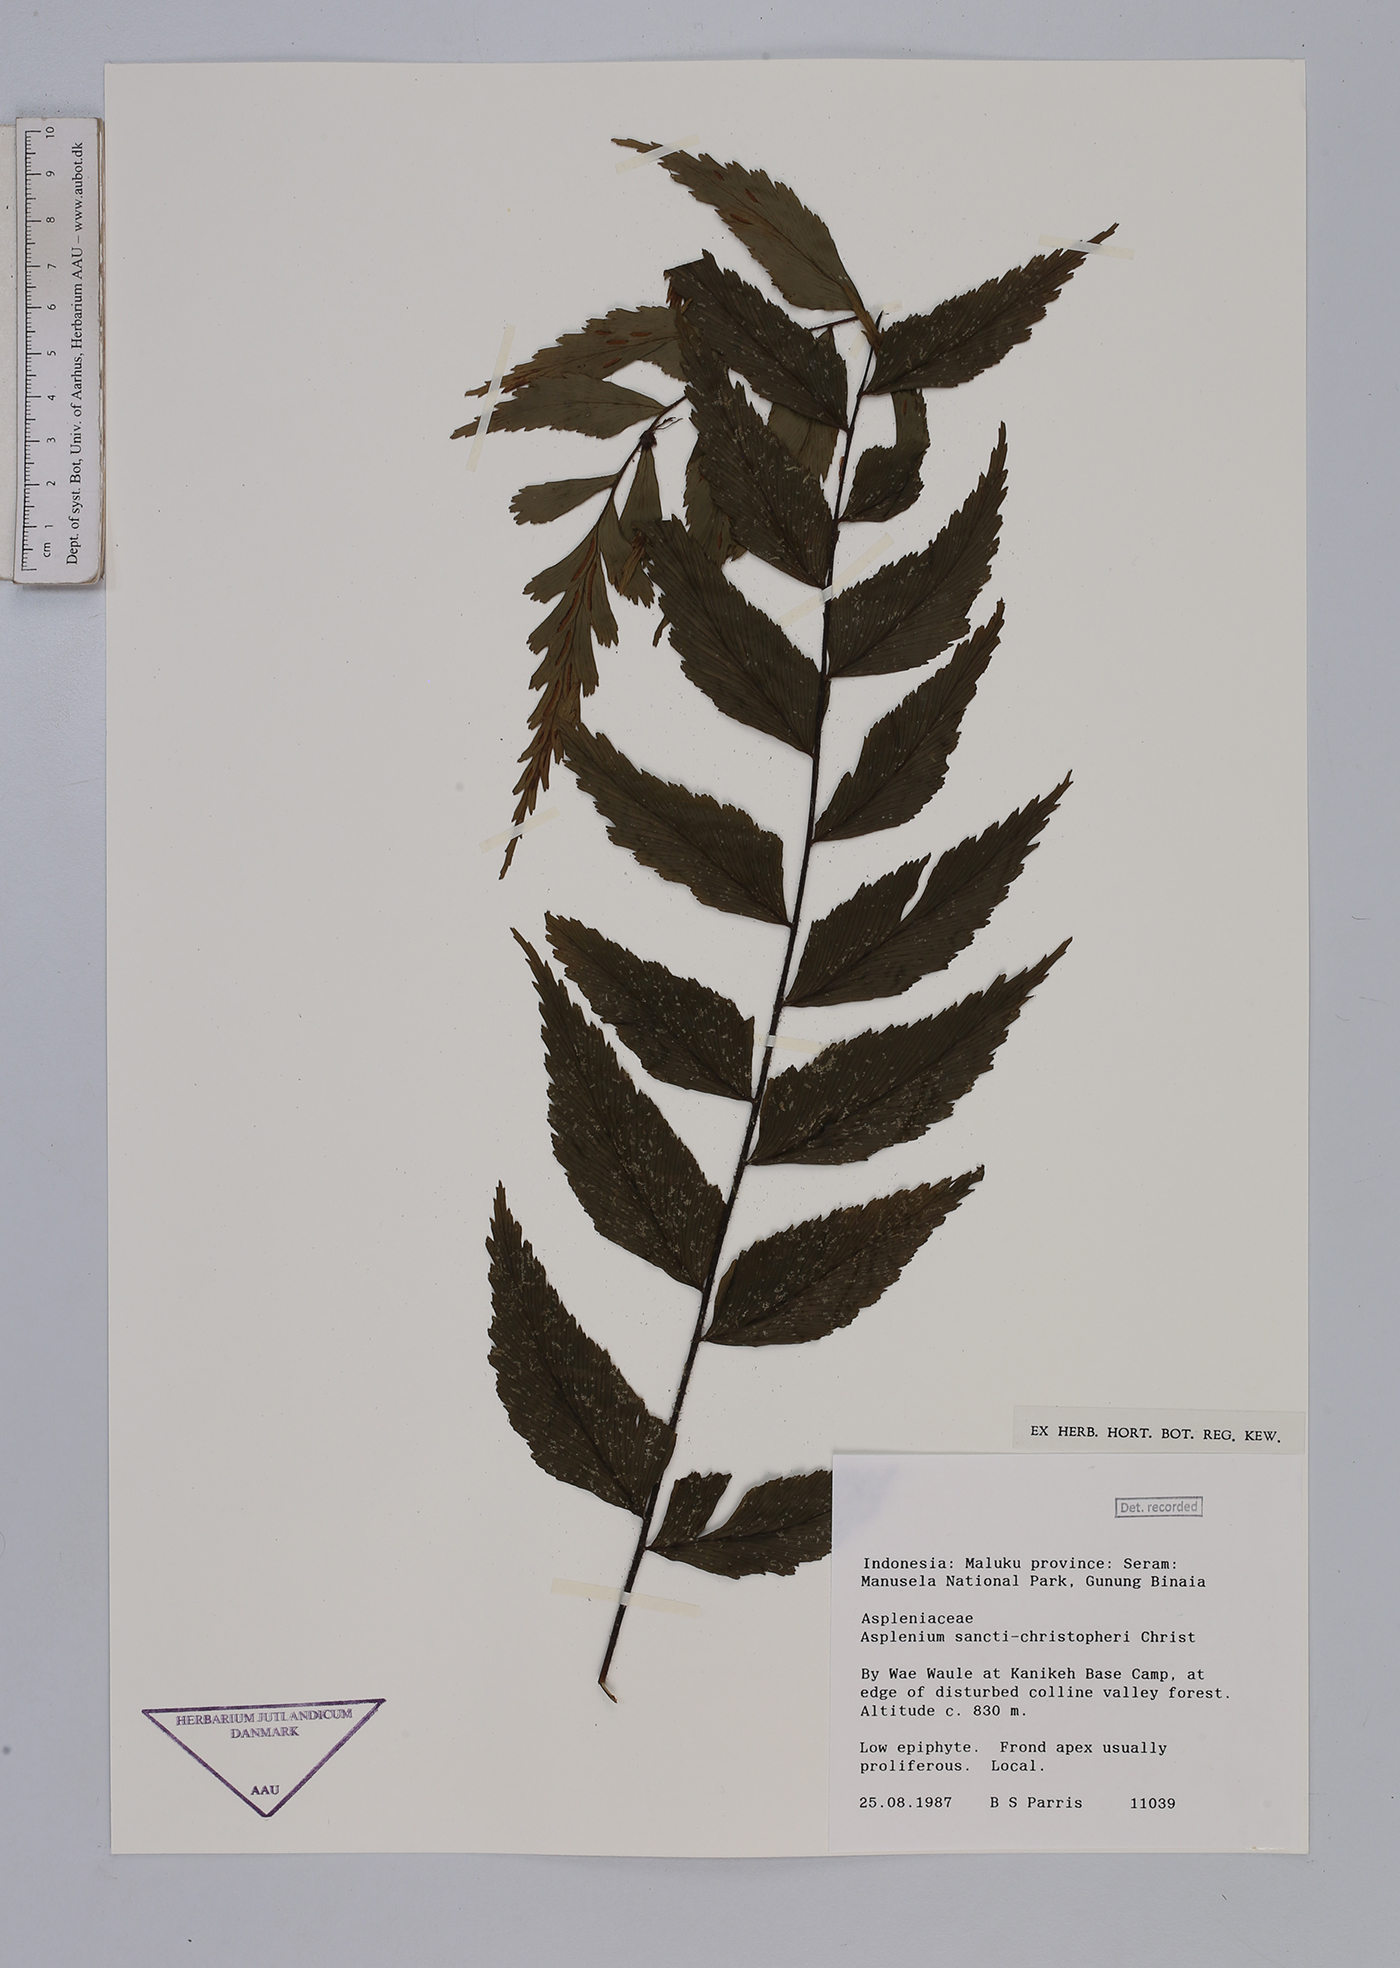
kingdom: Plantae
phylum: Tracheophyta
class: Polypodiopsida
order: Polypodiales
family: Aspleniaceae
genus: Asplenium
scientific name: Asplenium sancti-christofori
